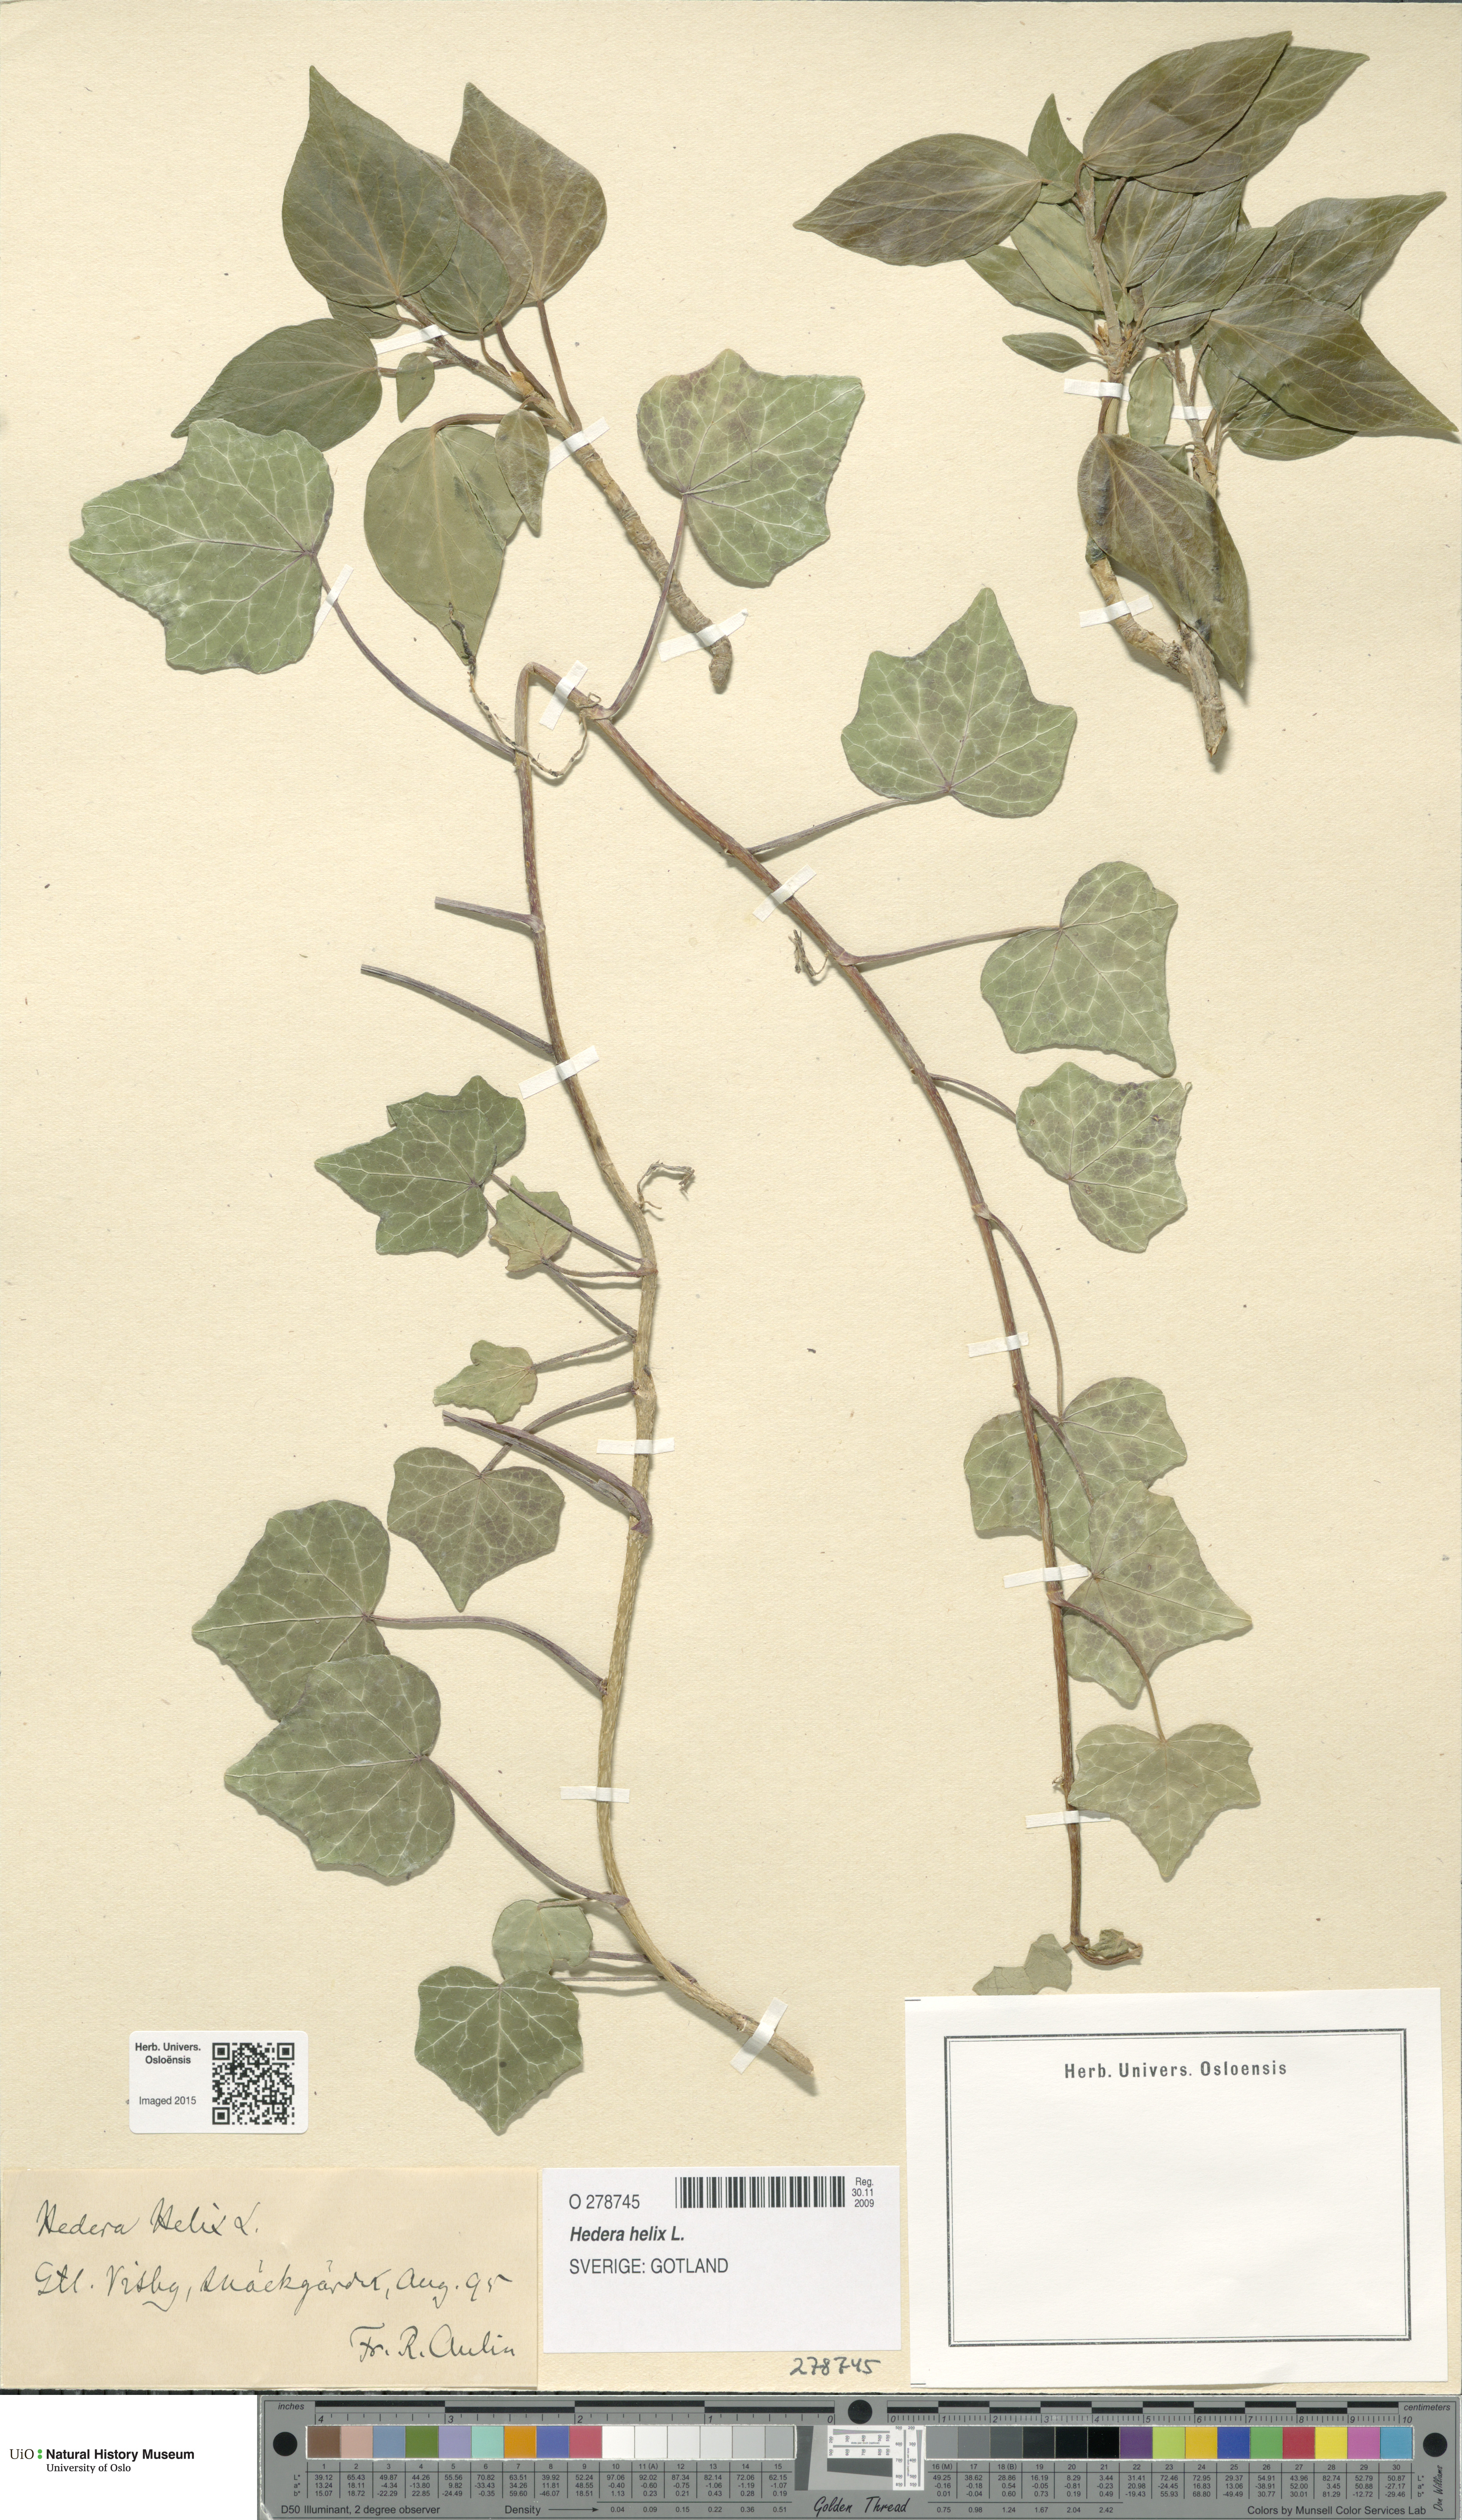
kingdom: Plantae
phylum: Tracheophyta
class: Magnoliopsida
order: Apiales
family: Araliaceae
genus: Hedera
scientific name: Hedera helix
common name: Ivy
